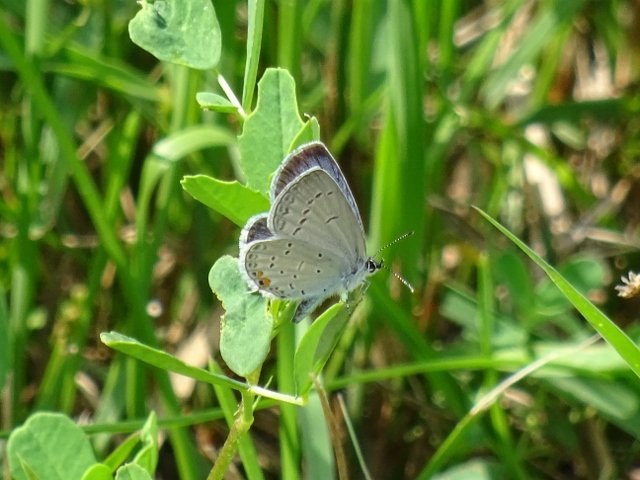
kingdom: Animalia
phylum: Arthropoda
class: Insecta
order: Lepidoptera
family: Lycaenidae
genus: Elkalyce
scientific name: Elkalyce comyntas
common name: Eastern Tailed-Blue
